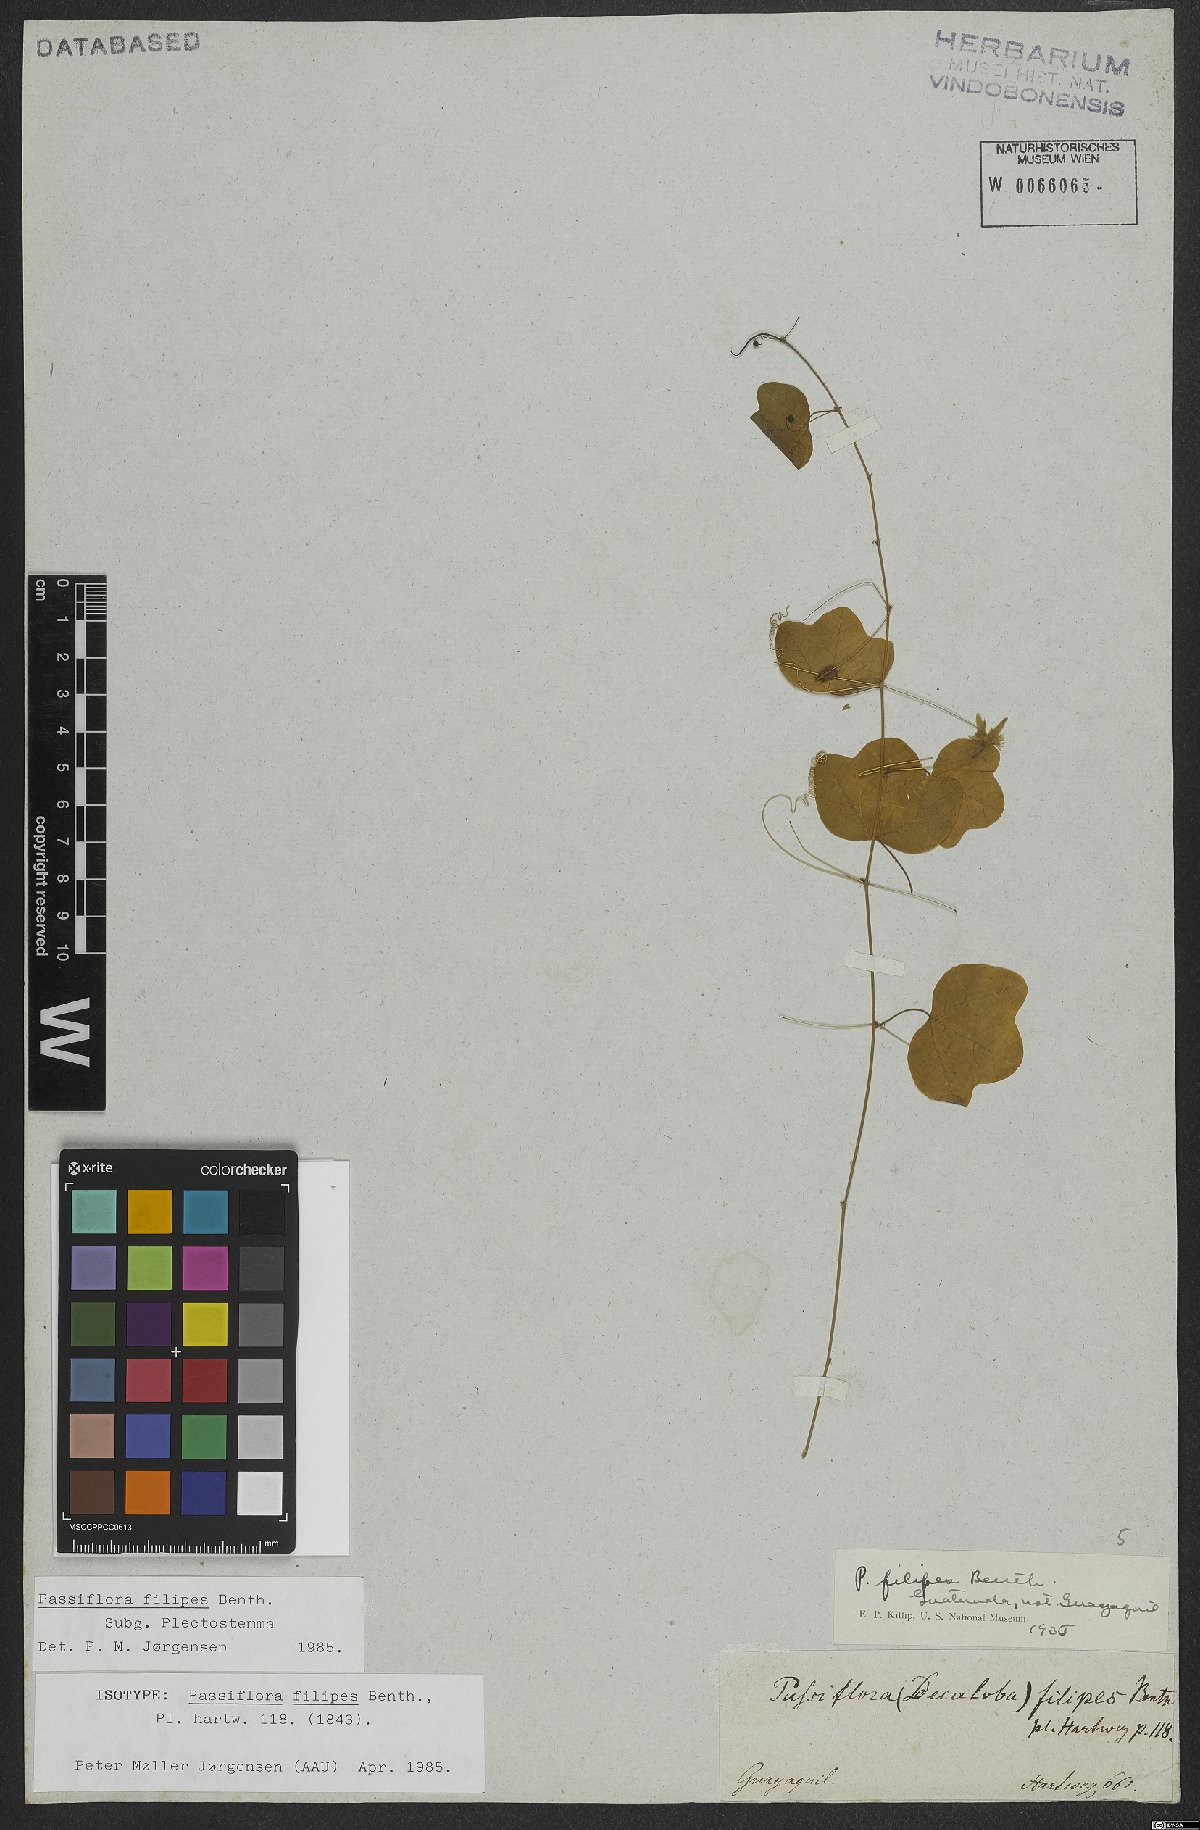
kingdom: Plantae
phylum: Tracheophyta
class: Magnoliopsida
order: Malpighiales
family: Passifloraceae
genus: Passiflora
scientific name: Passiflora filipes
